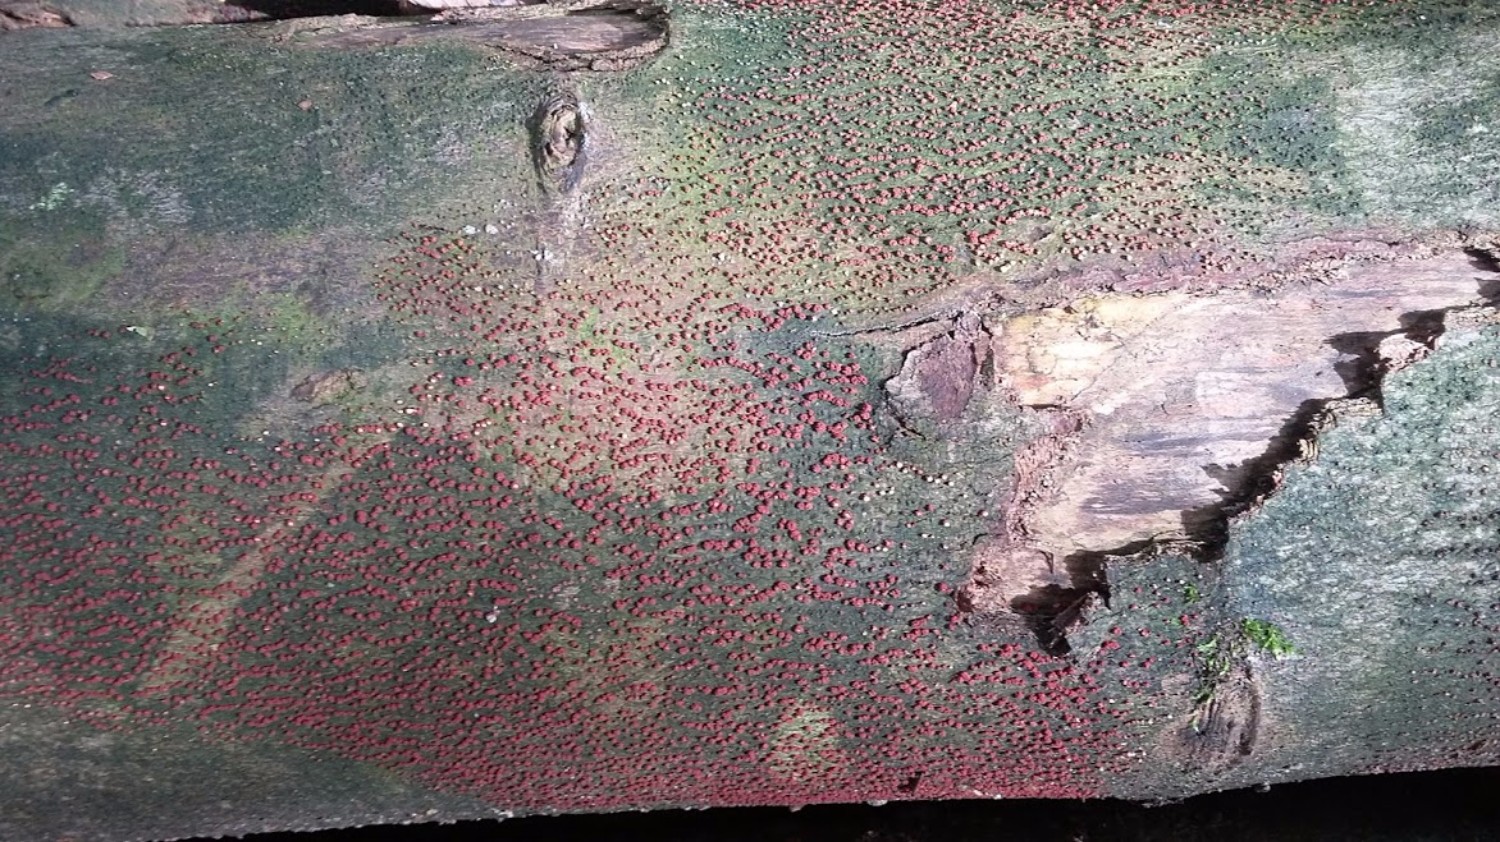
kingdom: Fungi
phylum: Ascomycota
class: Sordariomycetes
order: Hypocreales
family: Nectriaceae
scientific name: Nectriaceae
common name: cinnobersvampfamilien
